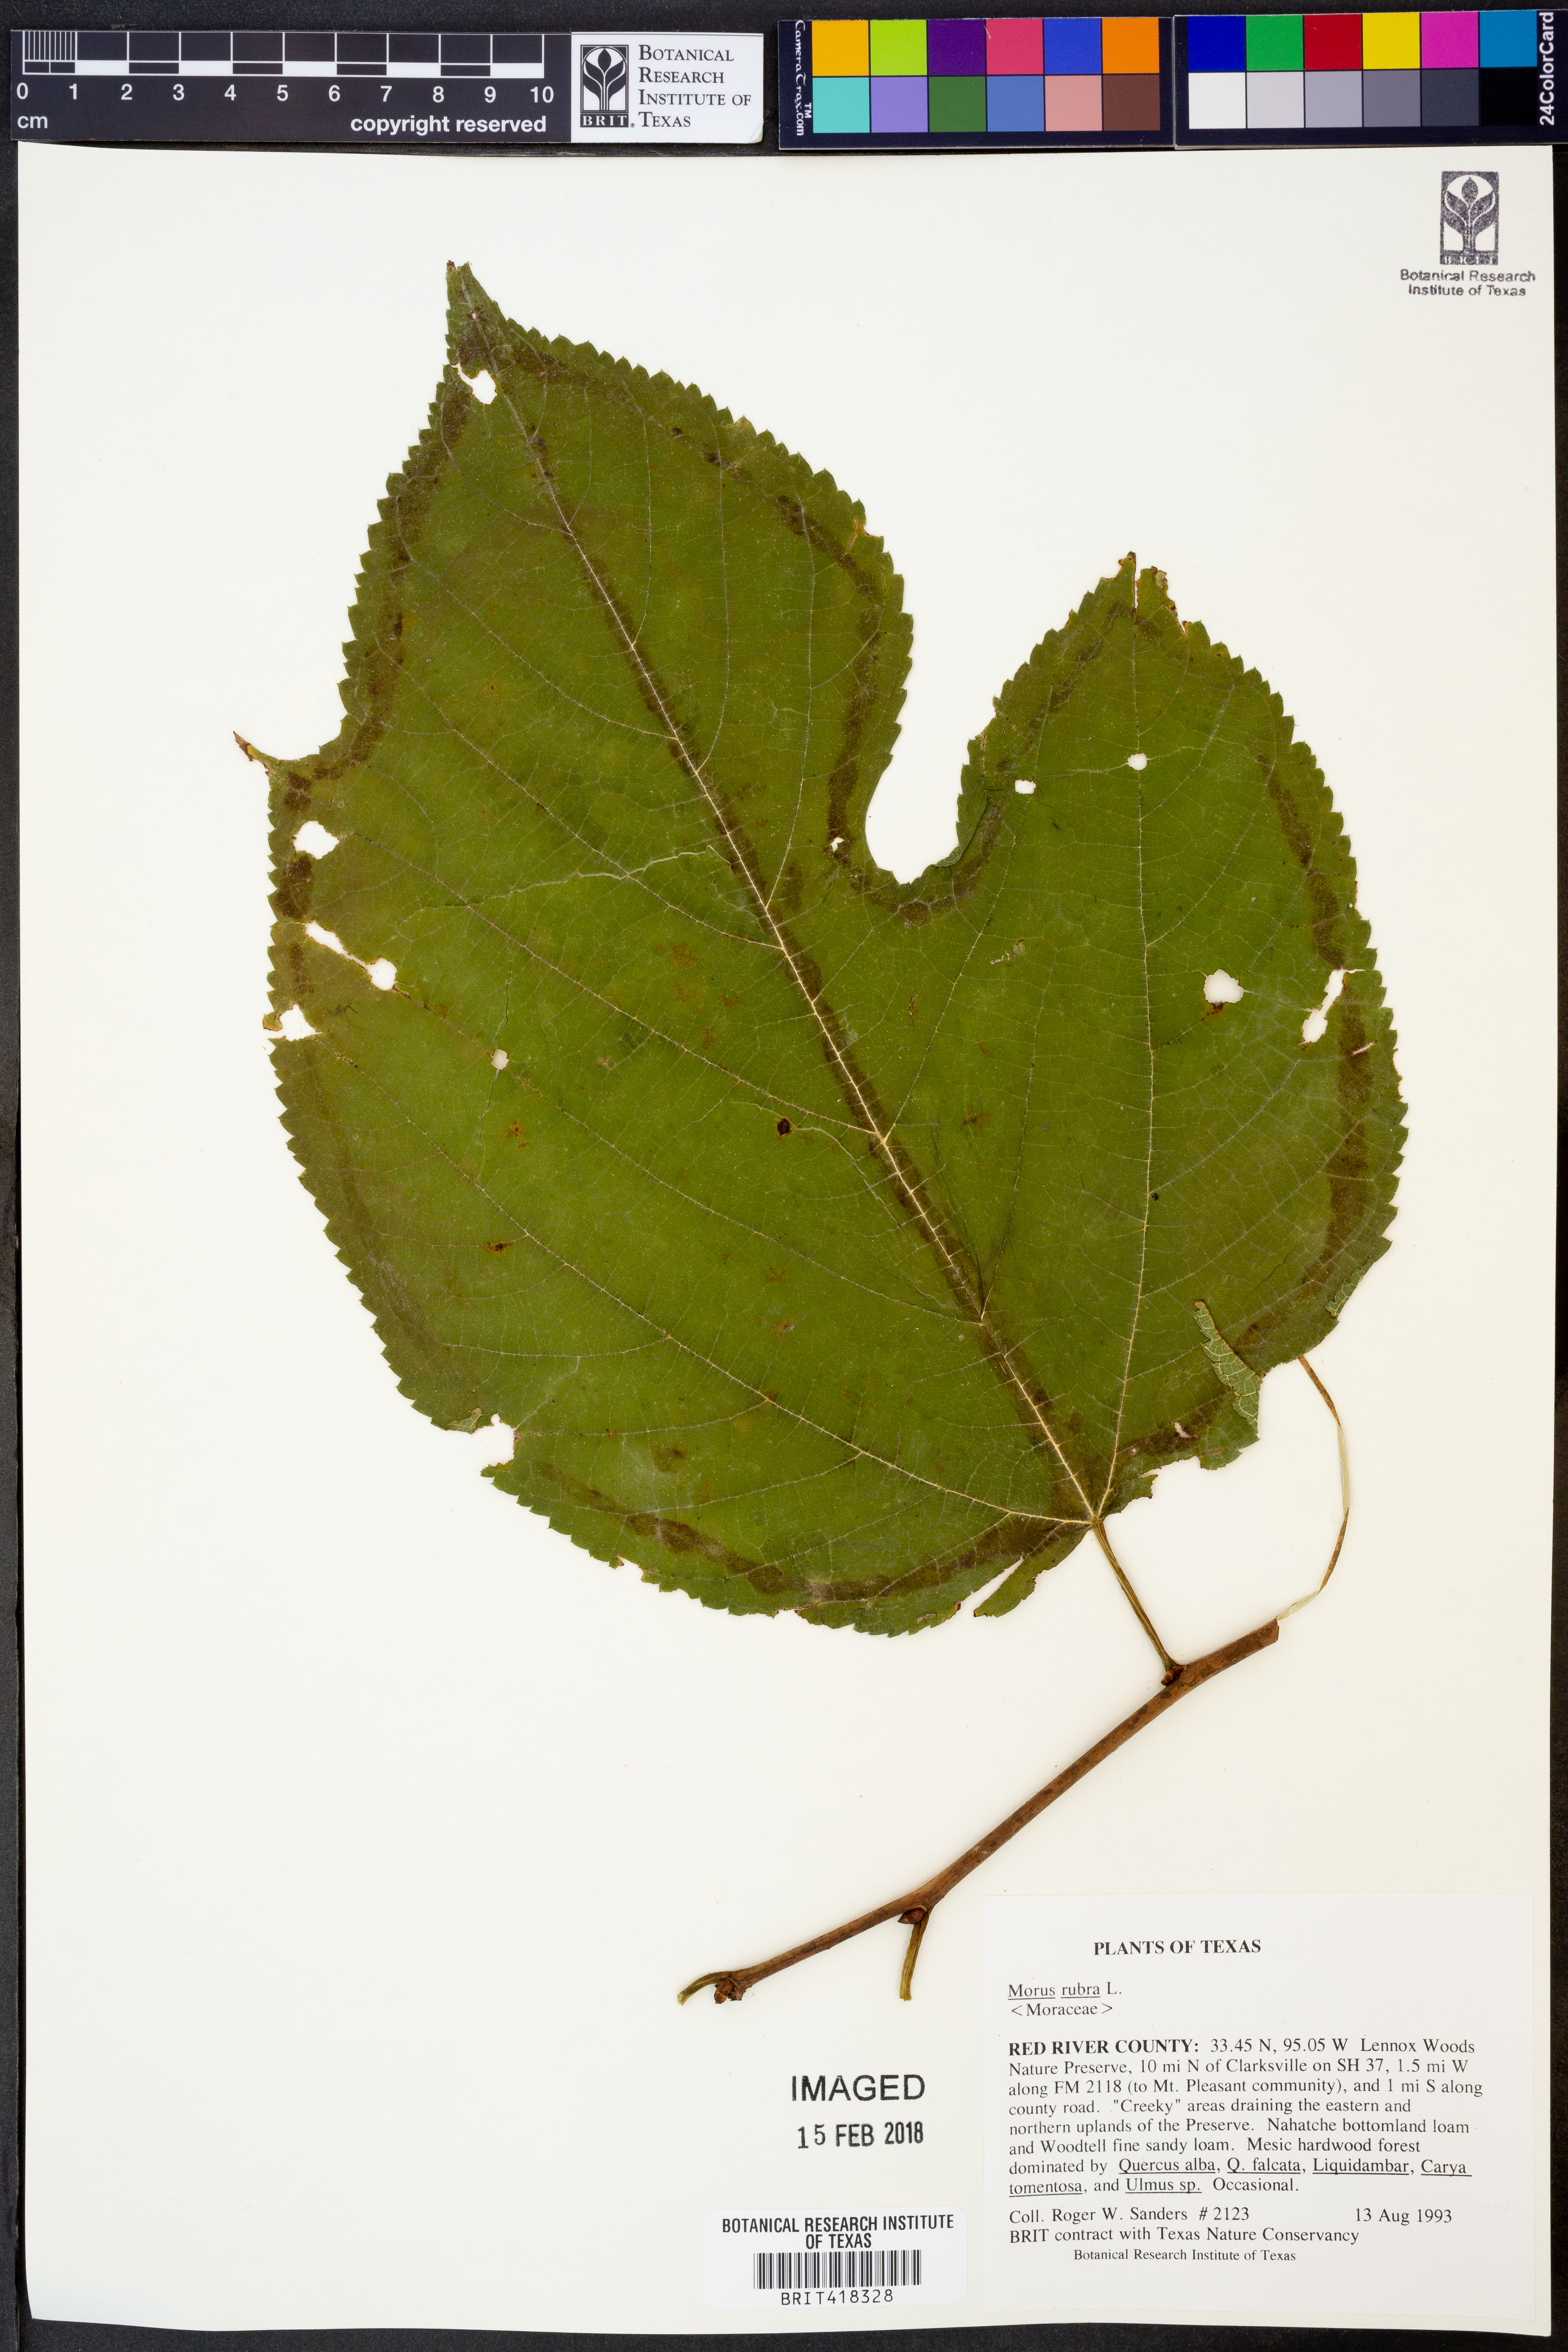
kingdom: Plantae
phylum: Tracheophyta
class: Magnoliopsida
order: Rosales
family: Moraceae
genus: Morus
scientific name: Morus rubra
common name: Red mulberry
